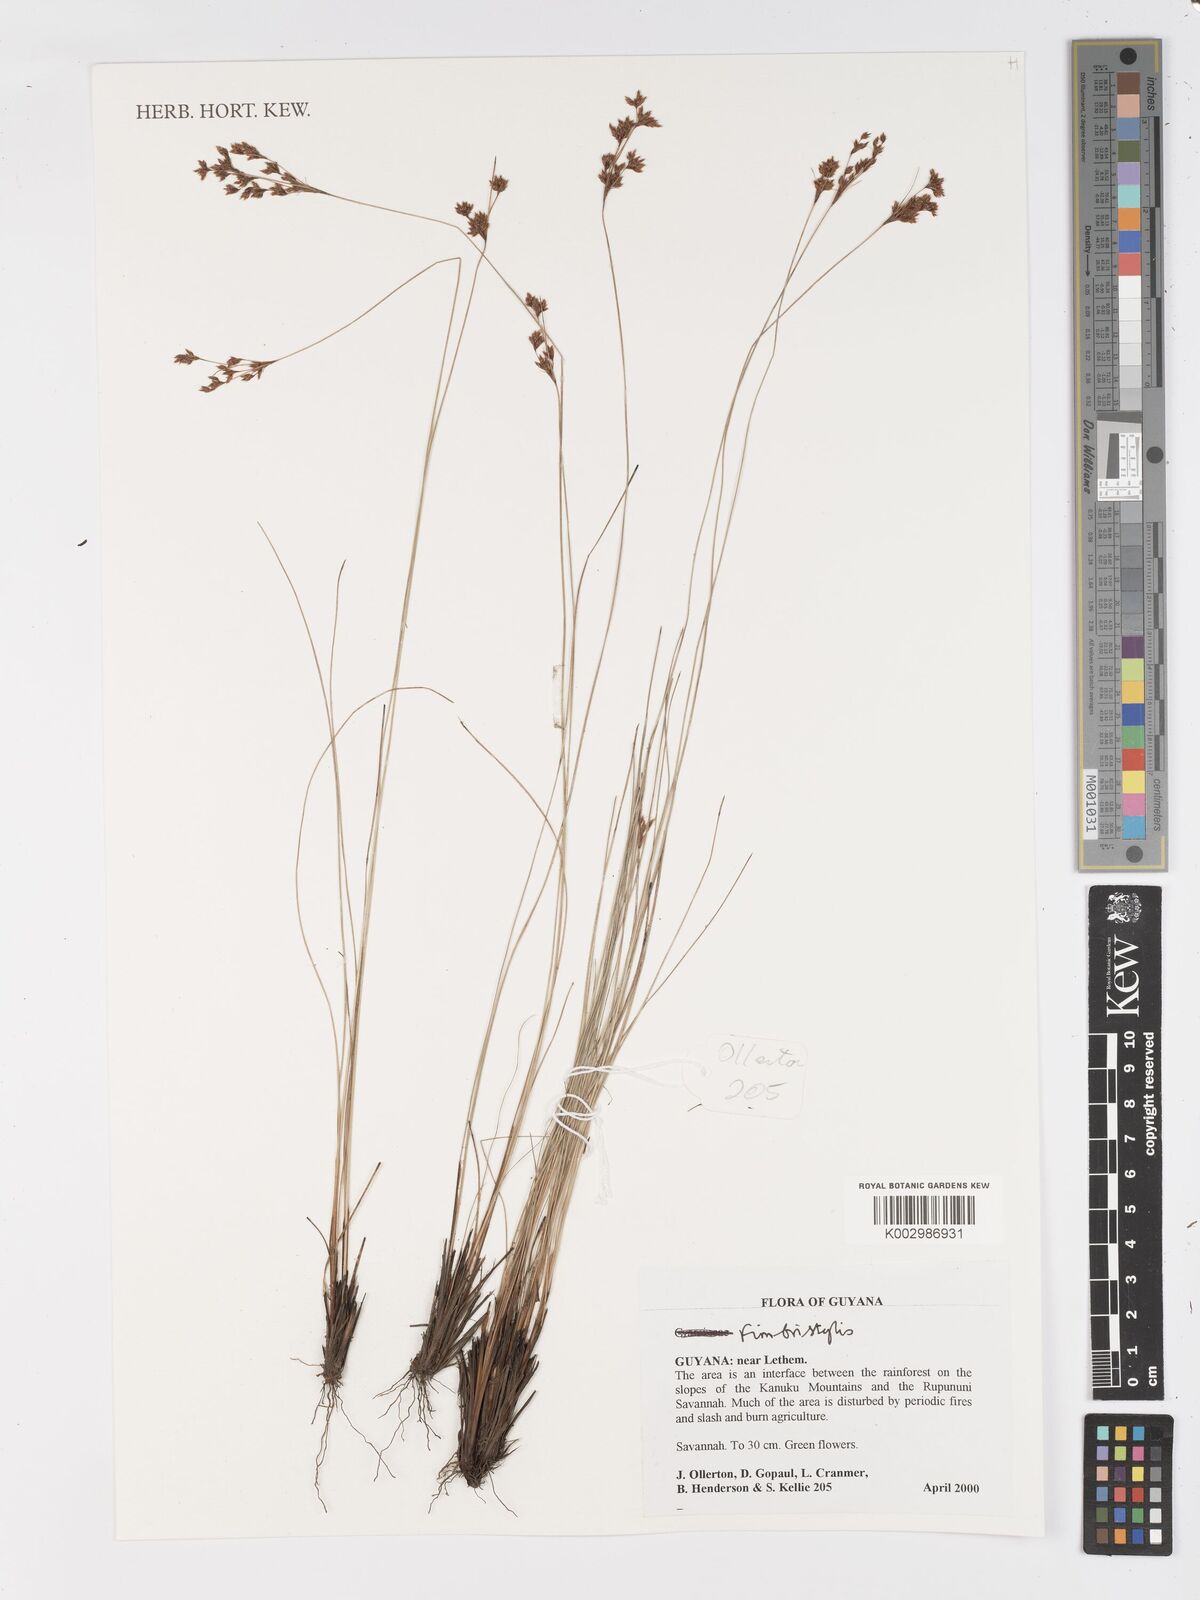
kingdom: Plantae
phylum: Tracheophyta
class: Liliopsida
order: Poales
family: Cyperaceae
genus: Fimbristylis
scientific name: Fimbristylis
